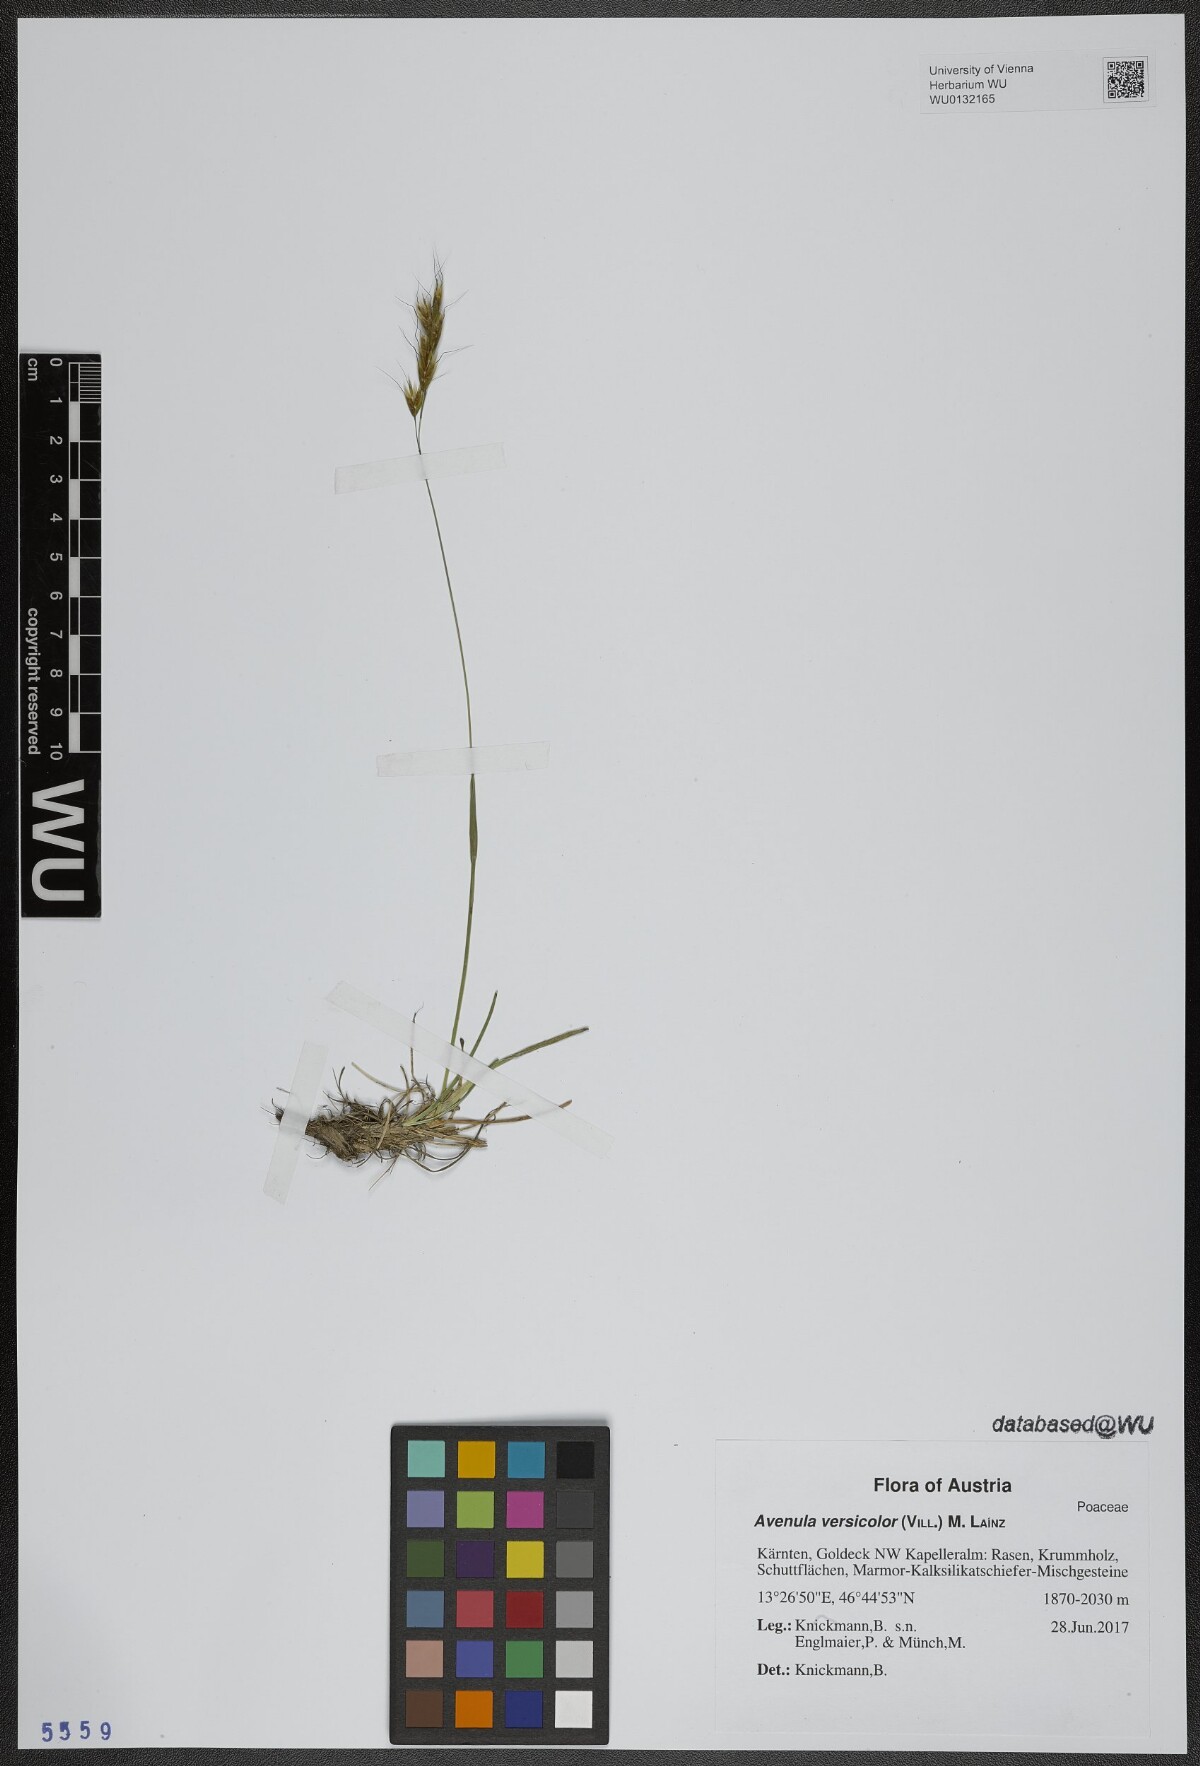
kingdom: Plantae
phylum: Tracheophyta
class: Liliopsida
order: Poales
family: Poaceae
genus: Helictochloa
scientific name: Helictochloa versicolor
